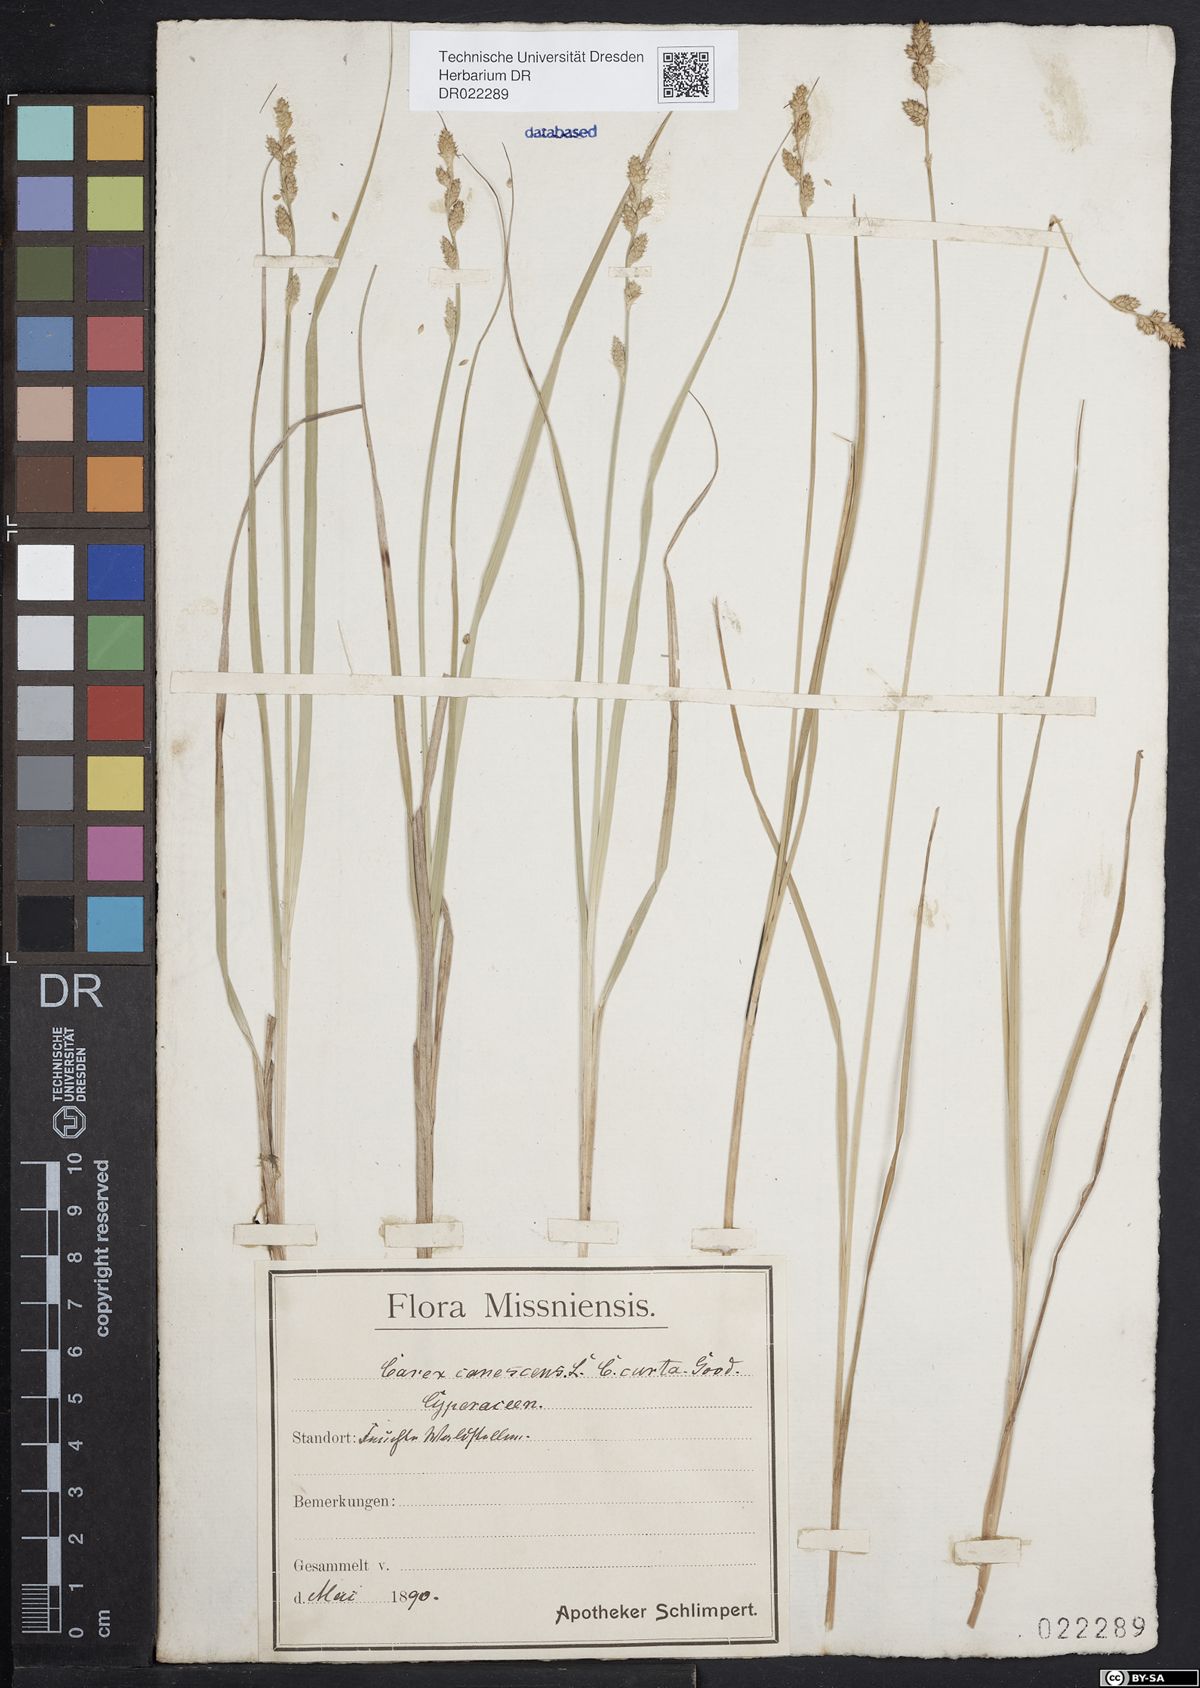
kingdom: Plantae
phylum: Tracheophyta
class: Liliopsida
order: Poales
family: Cyperaceae
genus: Carex
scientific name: Carex canescens
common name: White sedge
